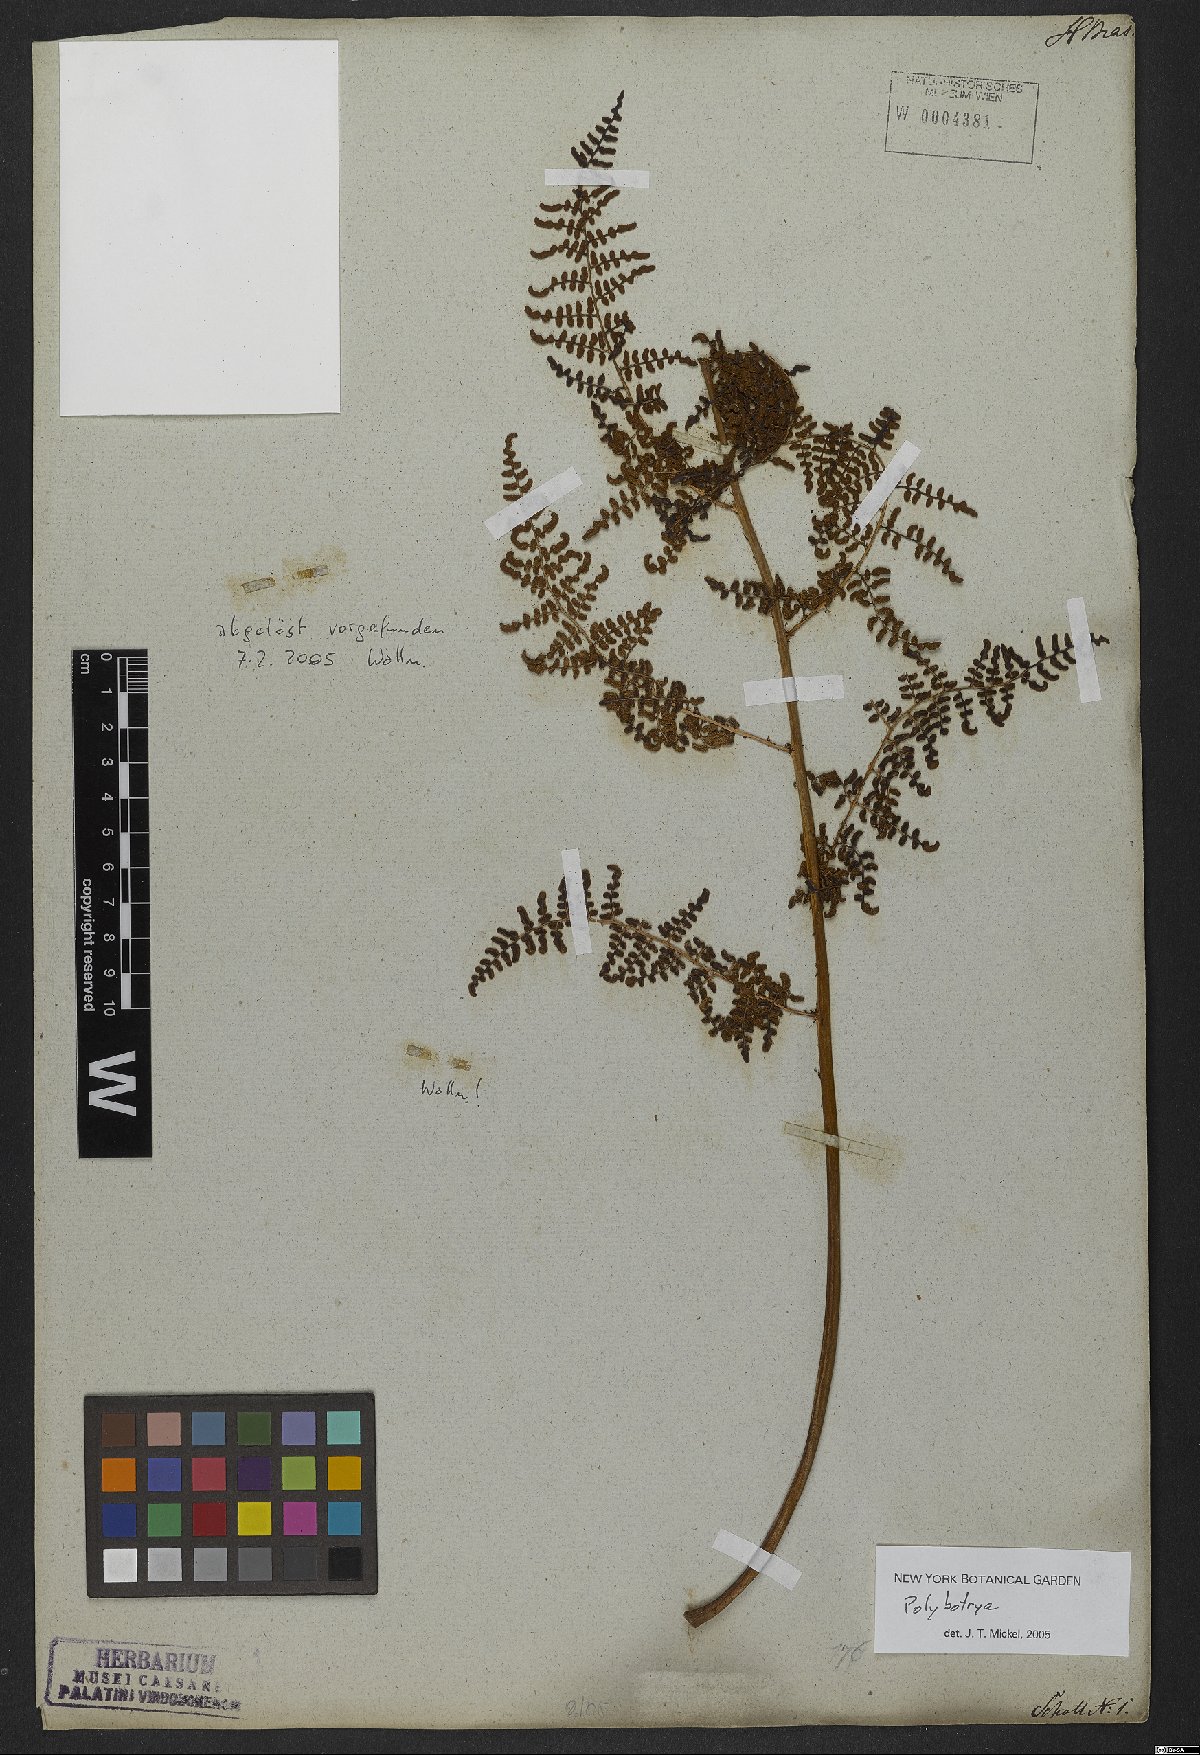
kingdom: Plantae
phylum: Tracheophyta
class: Polypodiopsida
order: Polypodiales
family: Dryopteridaceae
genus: Polybotrya
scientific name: Polybotrya osmundacea
